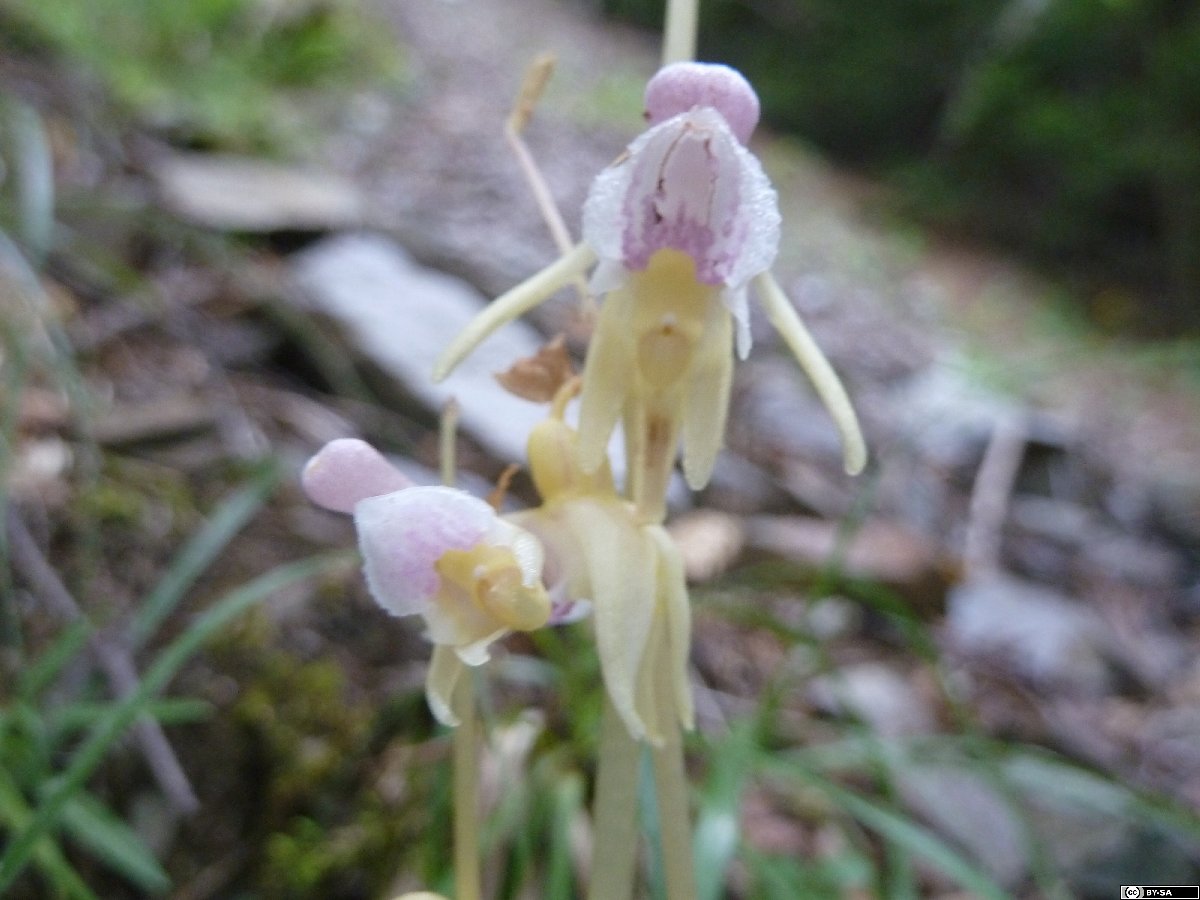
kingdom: Plantae
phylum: Tracheophyta
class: Liliopsida
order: Asparagales
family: Orchidaceae
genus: Epipogium
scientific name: Epipogium aphyllum
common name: Ghost orchid
